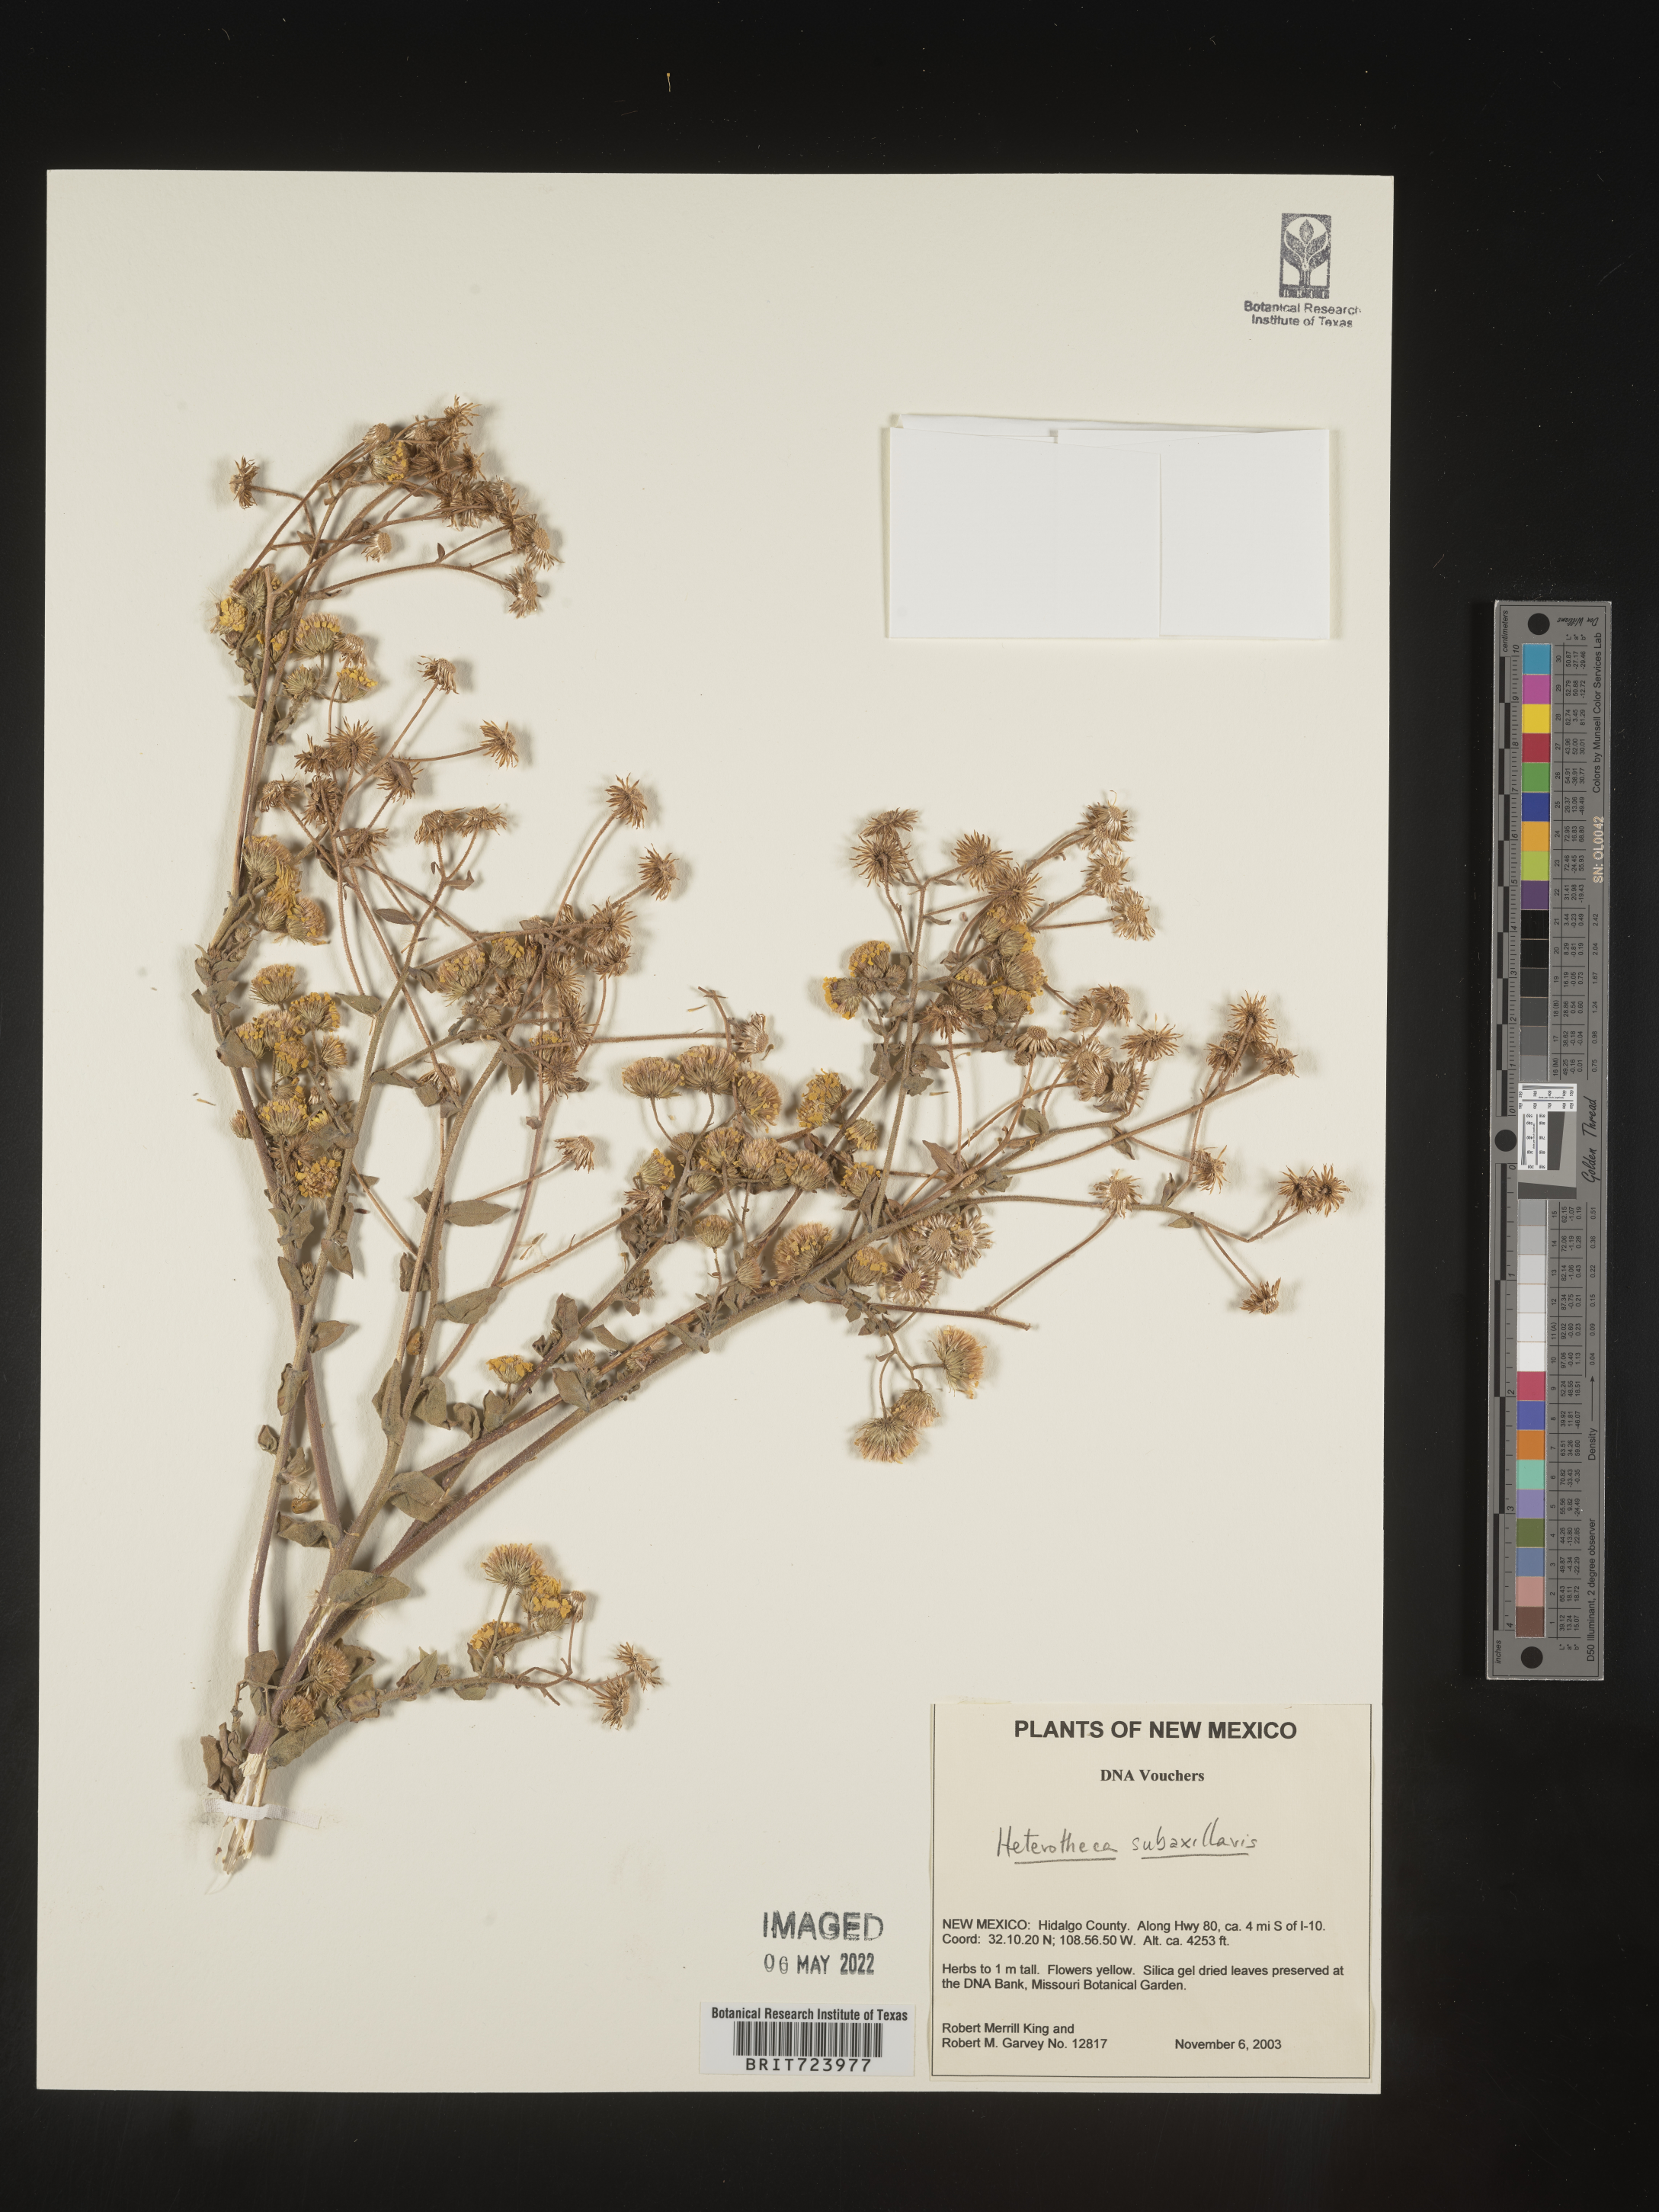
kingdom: Plantae
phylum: Tracheophyta
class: Magnoliopsida
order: Asterales
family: Asteraceae
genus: Heterotheca
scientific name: Heterotheca subaxillaris
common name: Camphorweed
